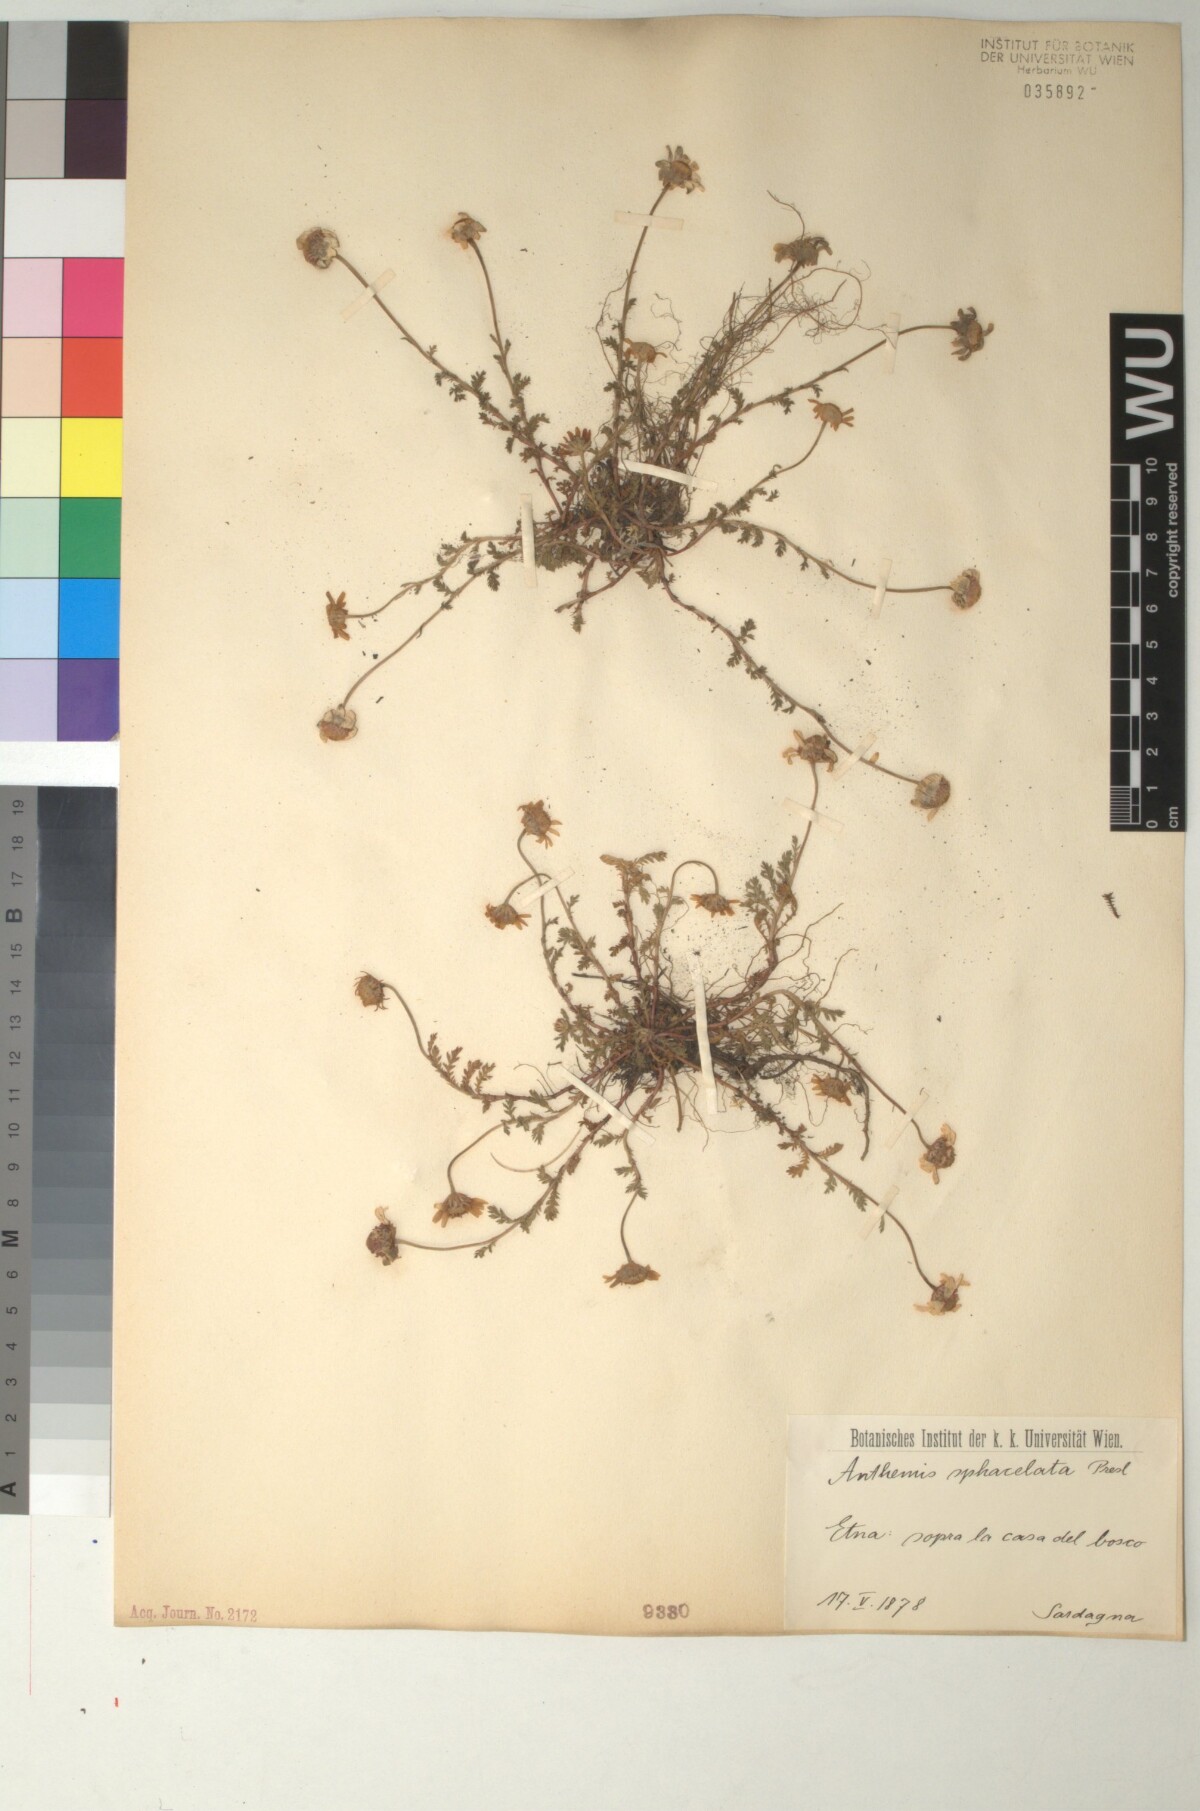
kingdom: Plantae
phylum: Tracheophyta
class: Magnoliopsida
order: Asterales
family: Asteraceae
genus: Anthemis
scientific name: Anthemis arvensis
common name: Corn chamomile
